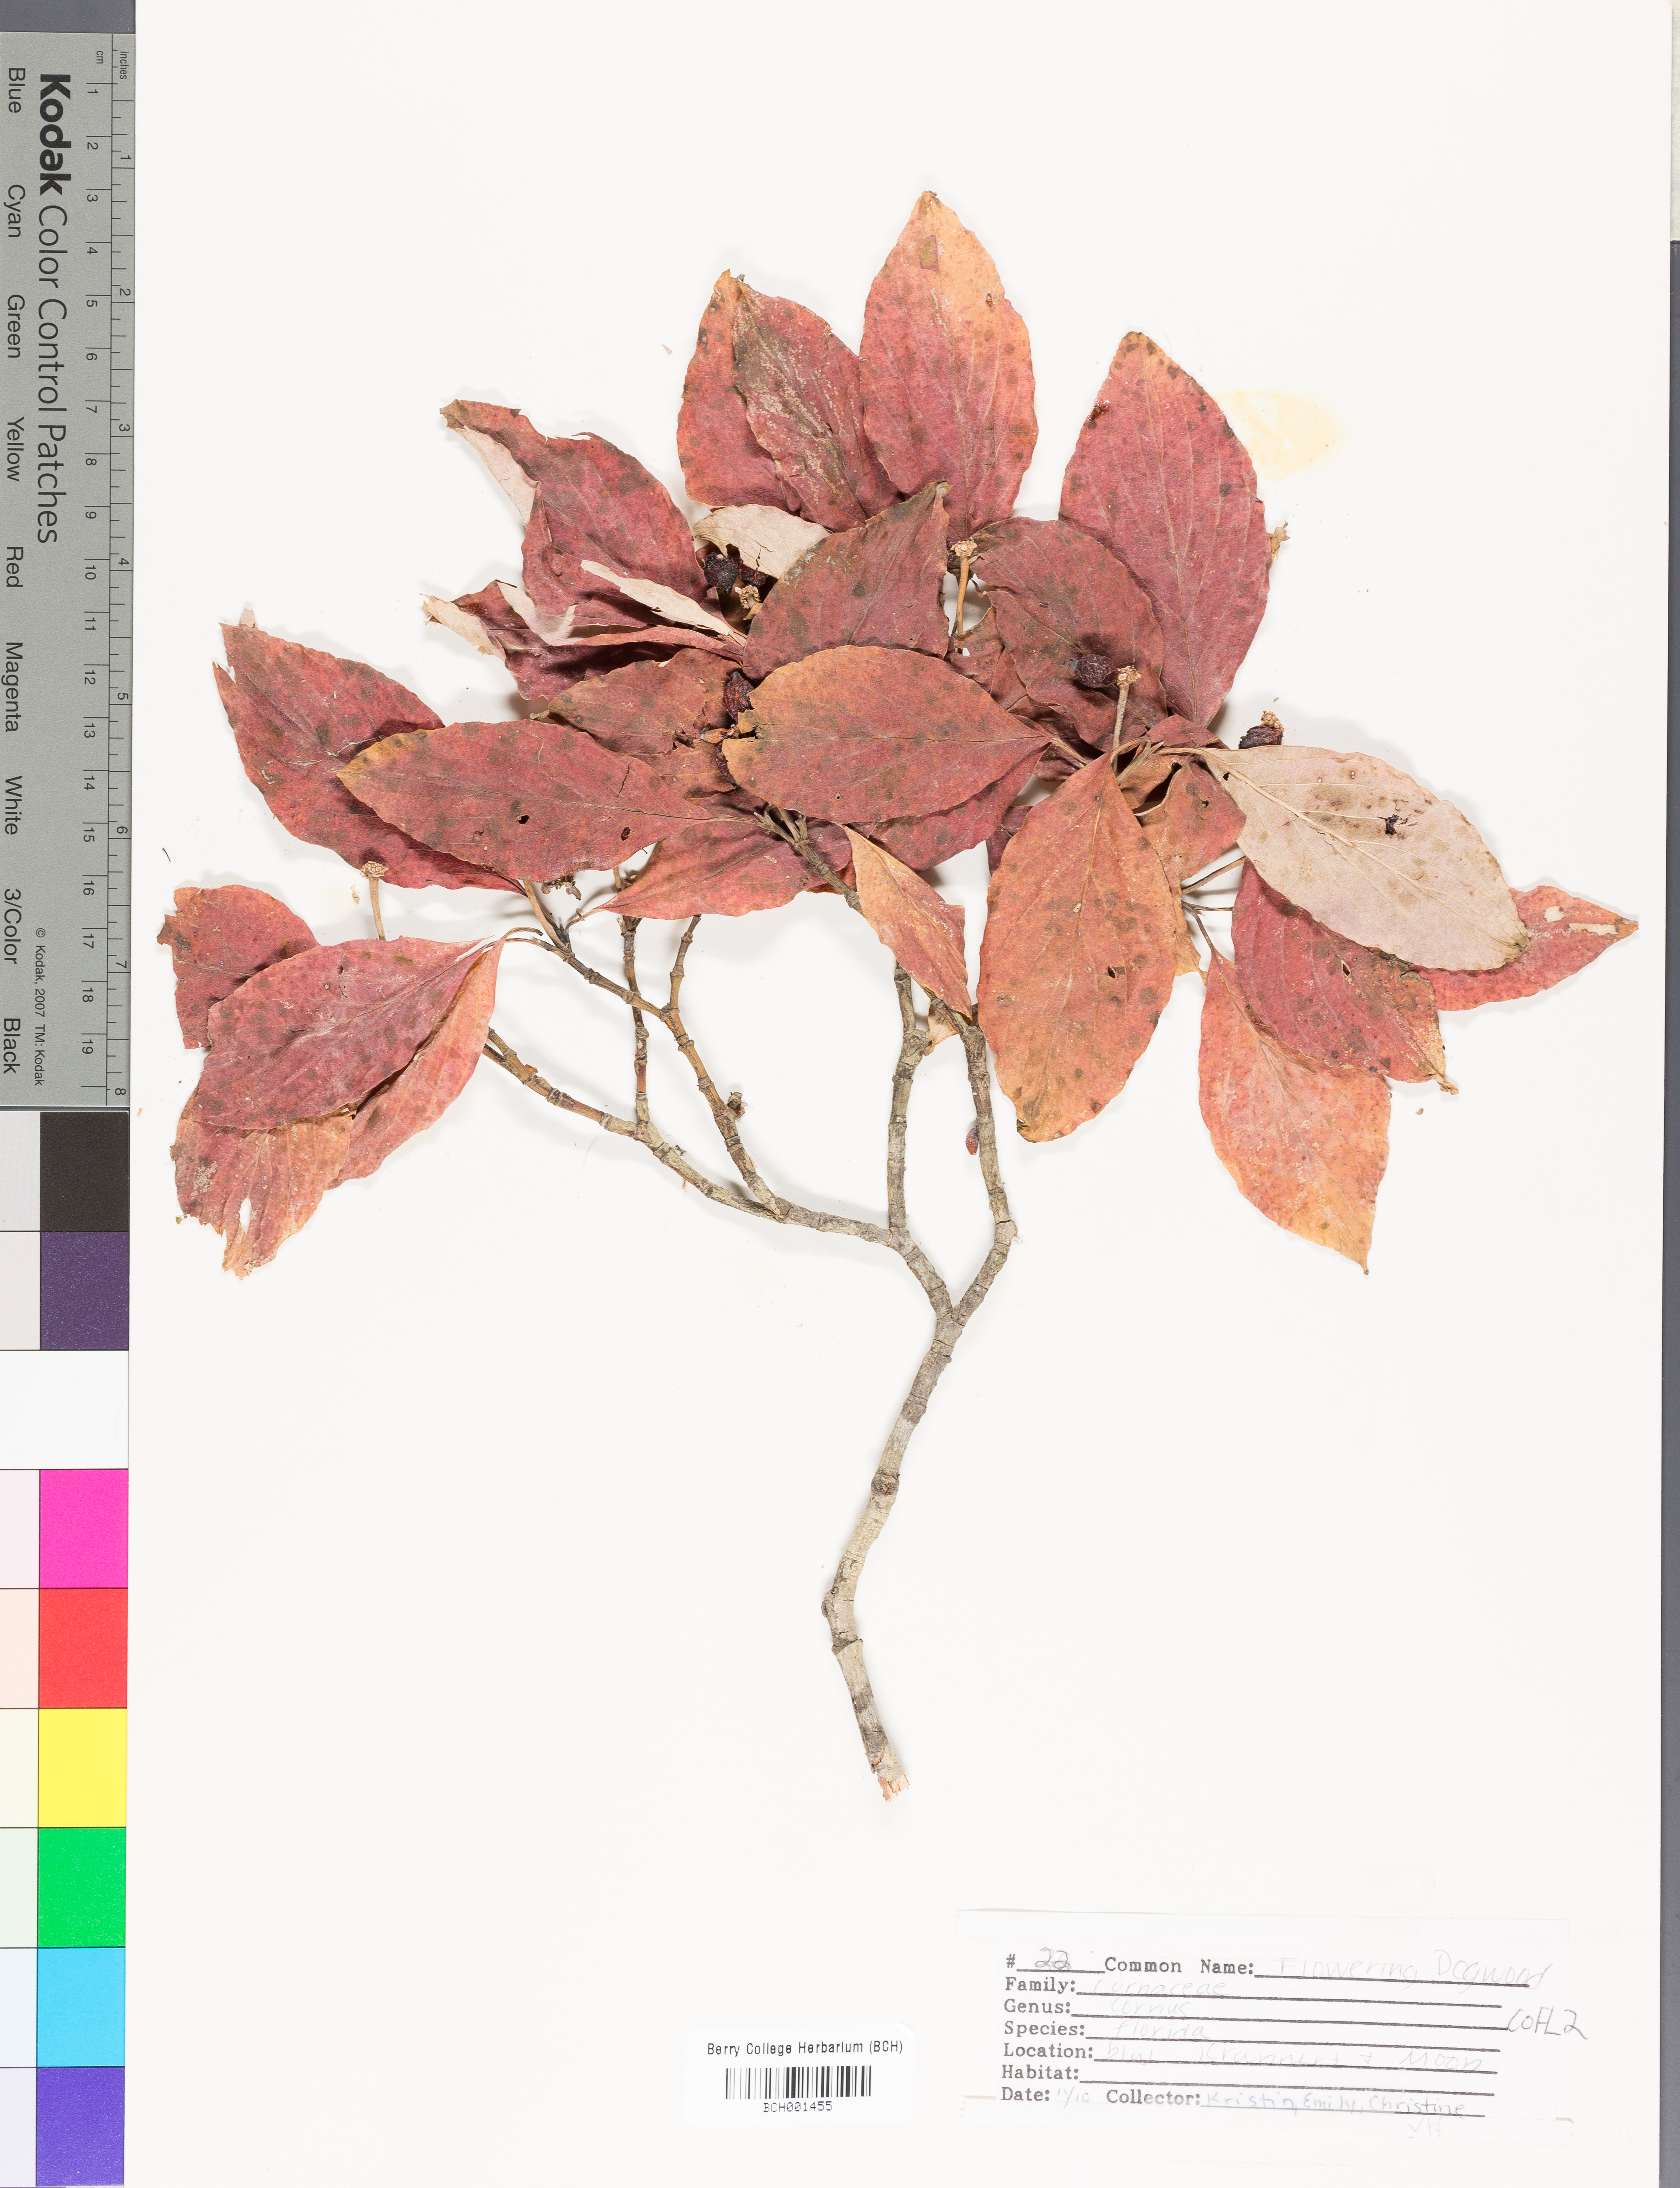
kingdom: Plantae
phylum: Tracheophyta
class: Magnoliopsida
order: Cornales
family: Cornaceae
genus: Cornus
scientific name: Cornus florida
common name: Flowering dogwood
